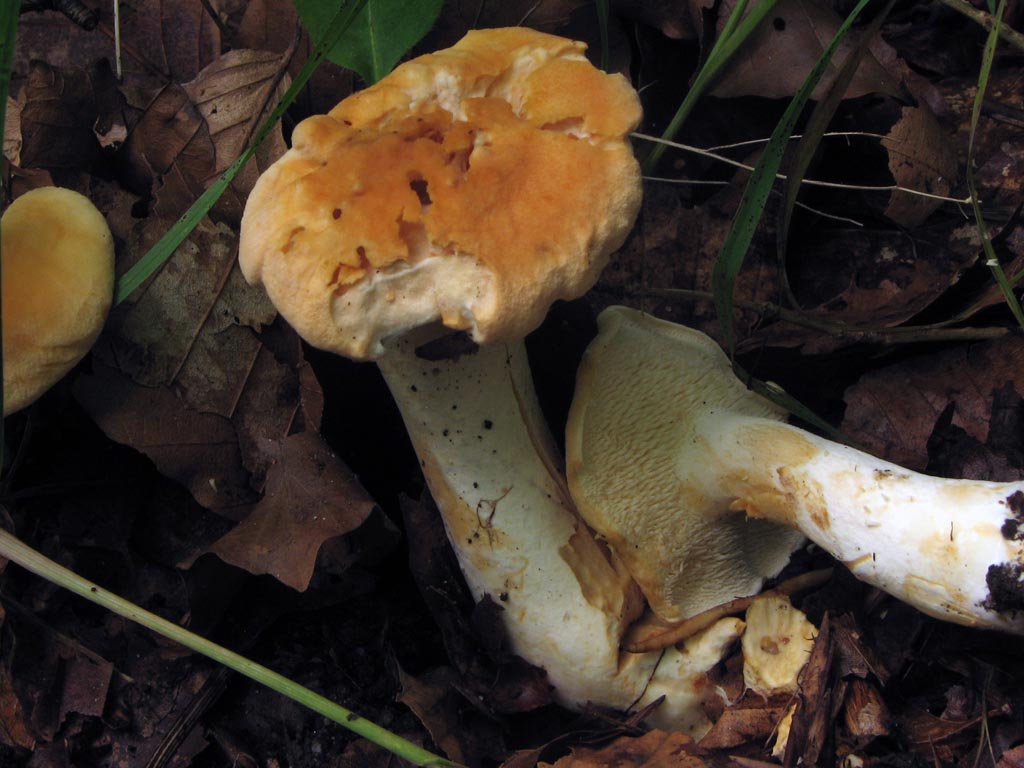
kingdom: Fungi
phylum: Basidiomycota
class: Agaricomycetes
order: Cantharellales
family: Hydnaceae
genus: Hydnum
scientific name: Hydnum rufescens
